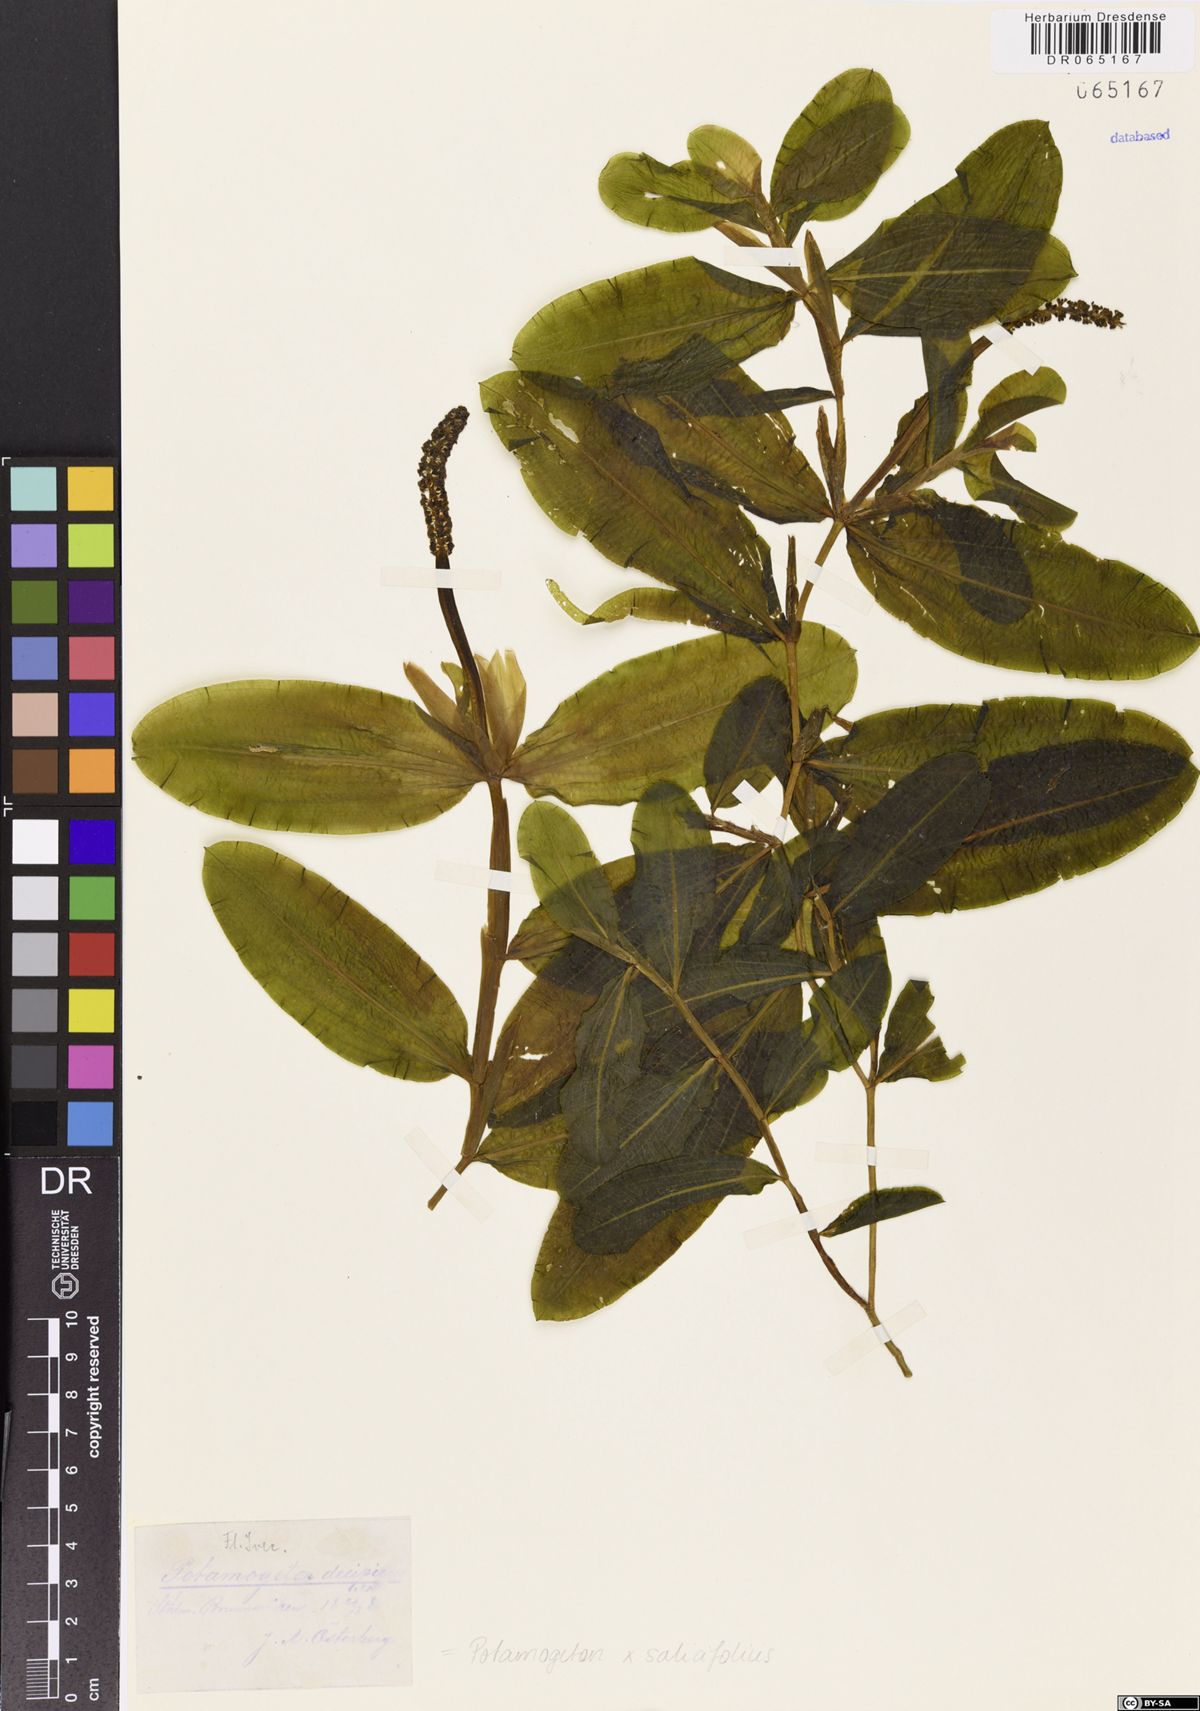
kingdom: Plantae
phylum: Tracheophyta
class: Liliopsida
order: Alismatales
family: Potamogetonaceae
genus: Potamogeton
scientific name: Potamogeton salicifolius
